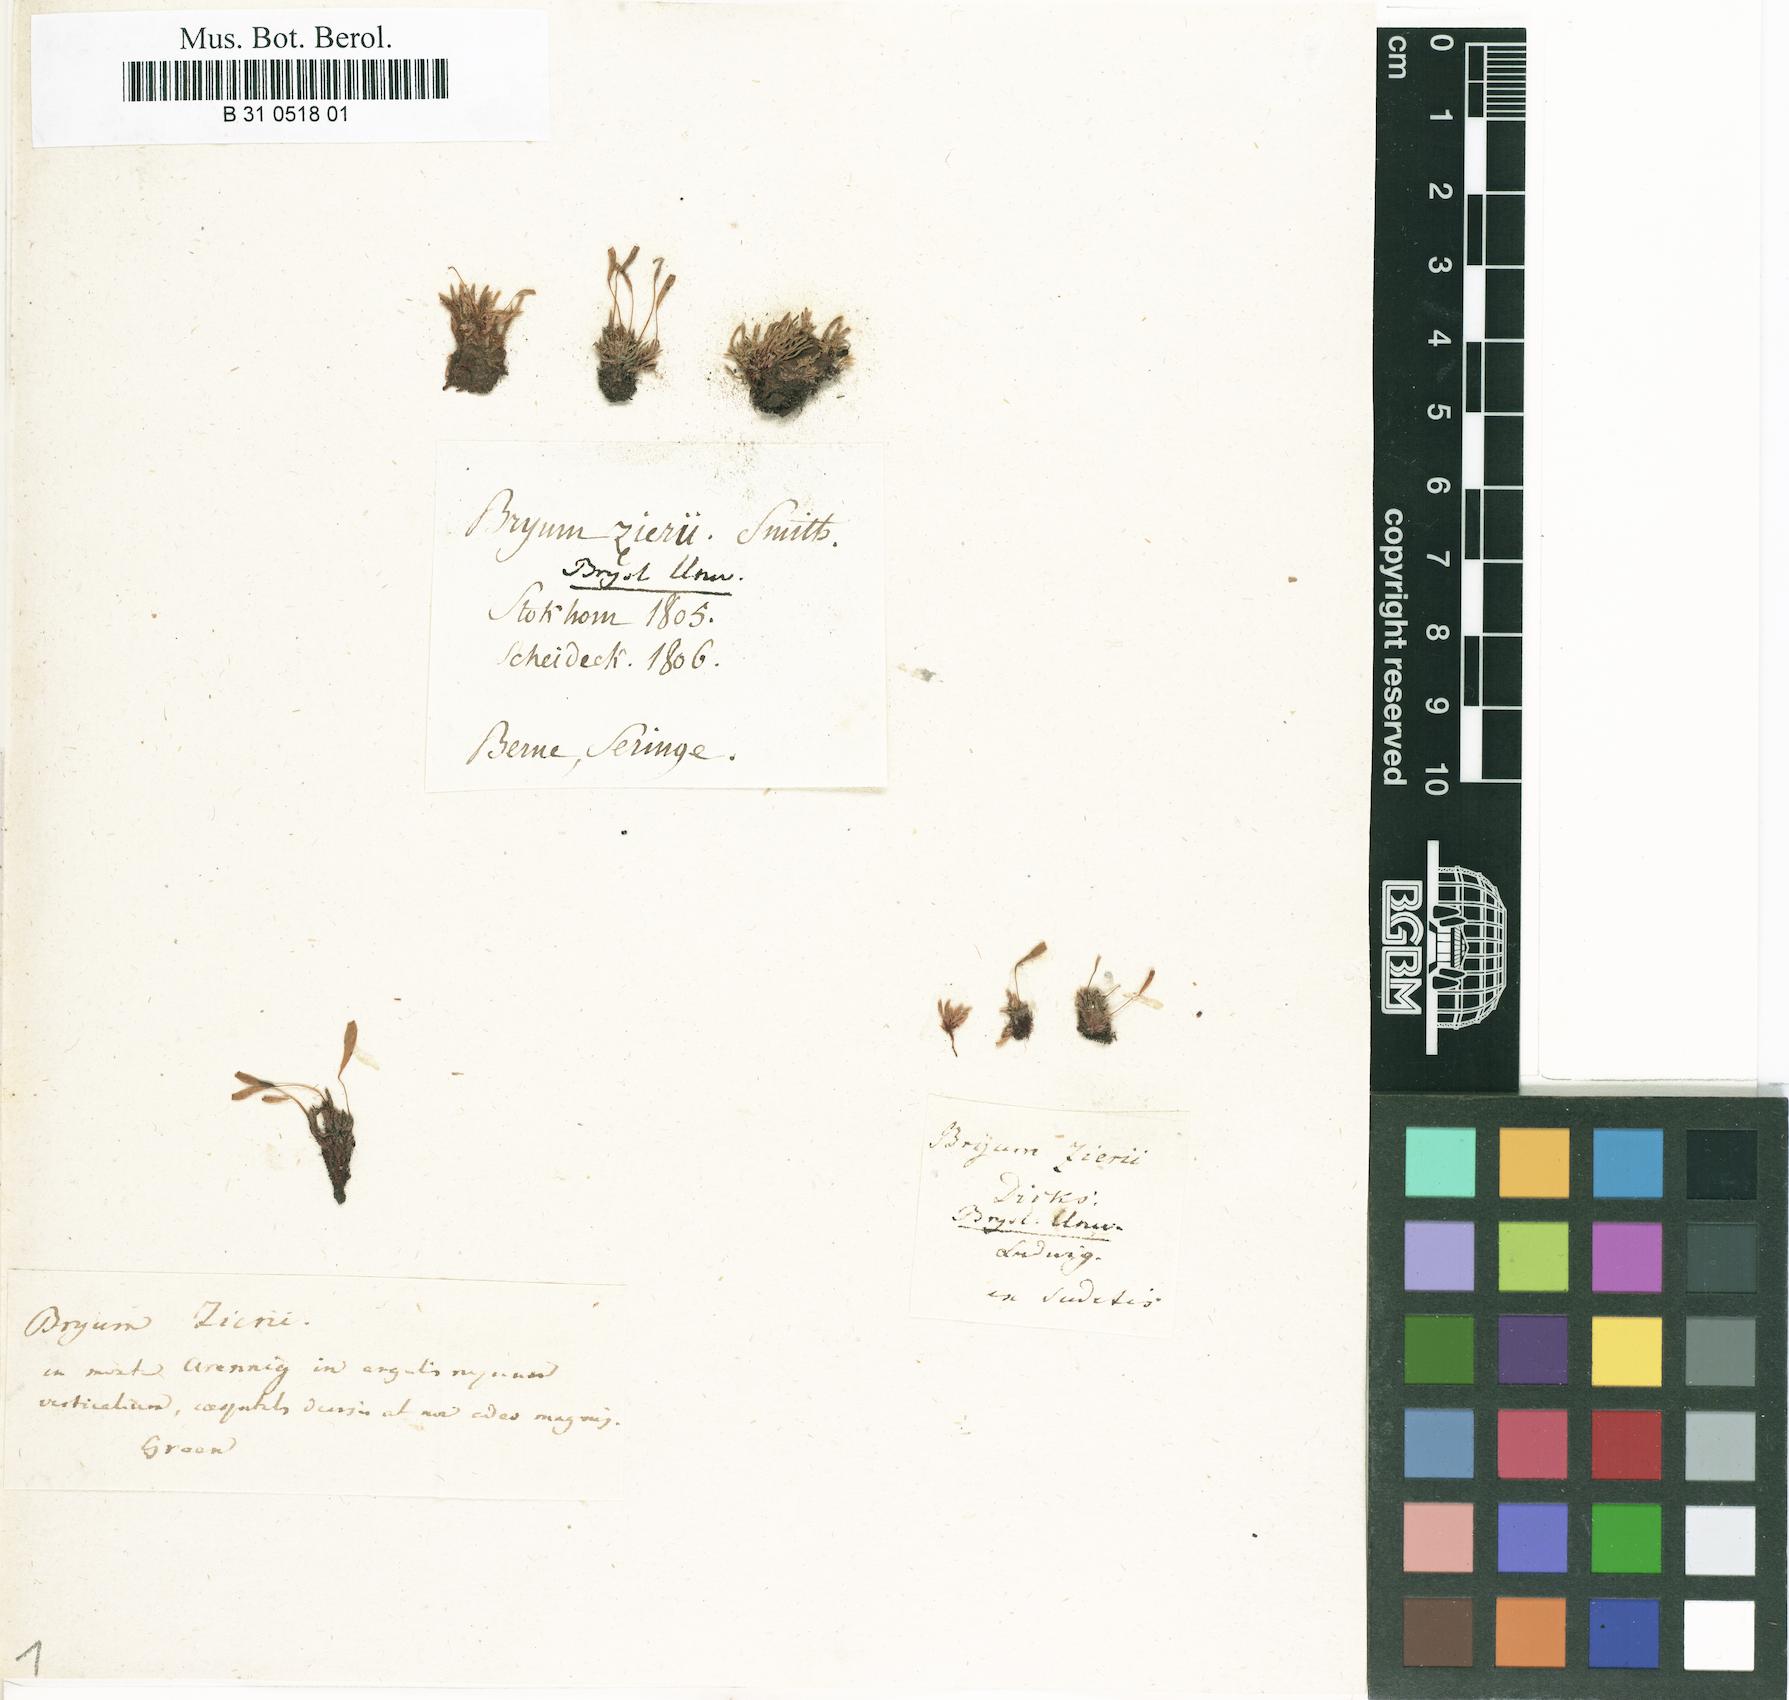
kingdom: Plantae
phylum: Bryophyta
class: Bryopsida
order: Bryales
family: Bryaceae
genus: Plagiobryum
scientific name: Plagiobryum zieri
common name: Zier's hump moss
